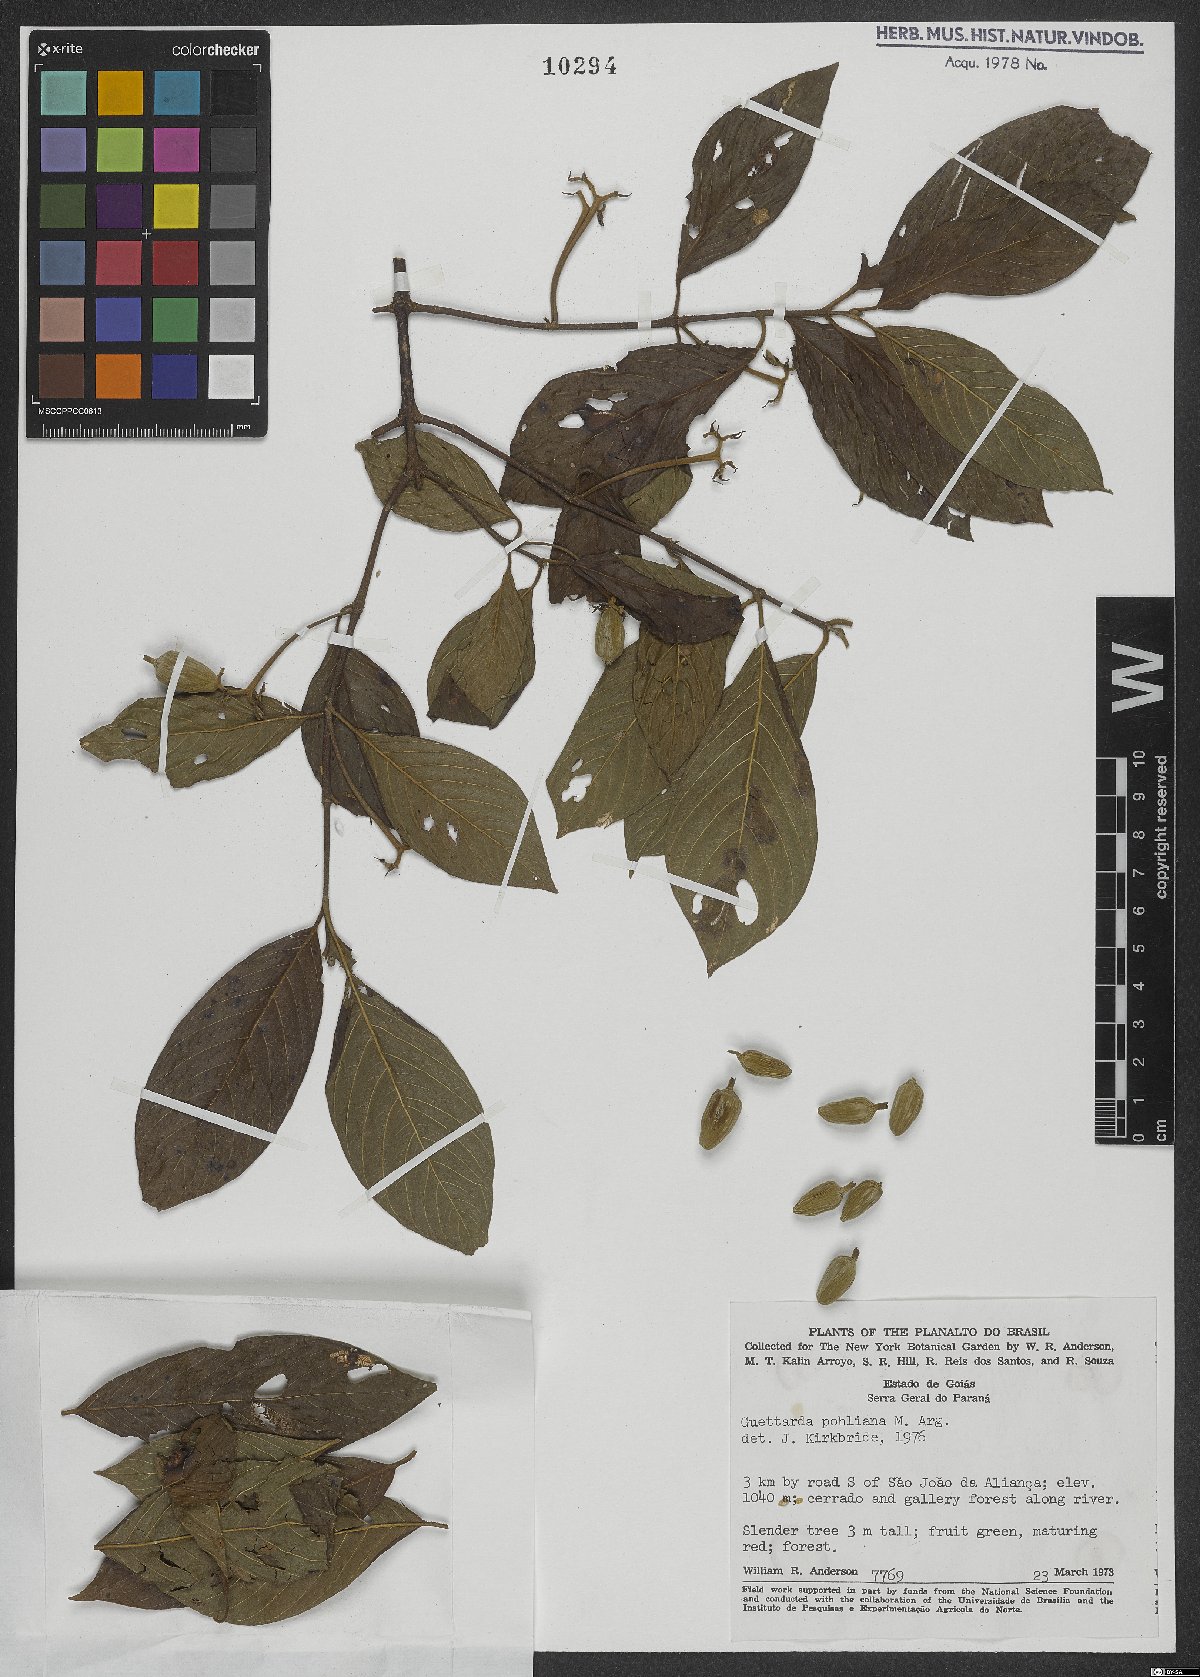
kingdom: Plantae
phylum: Tracheophyta
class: Magnoliopsida
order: Gentianales
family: Rubiaceae
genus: Guettarda
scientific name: Guettarda pohliana
